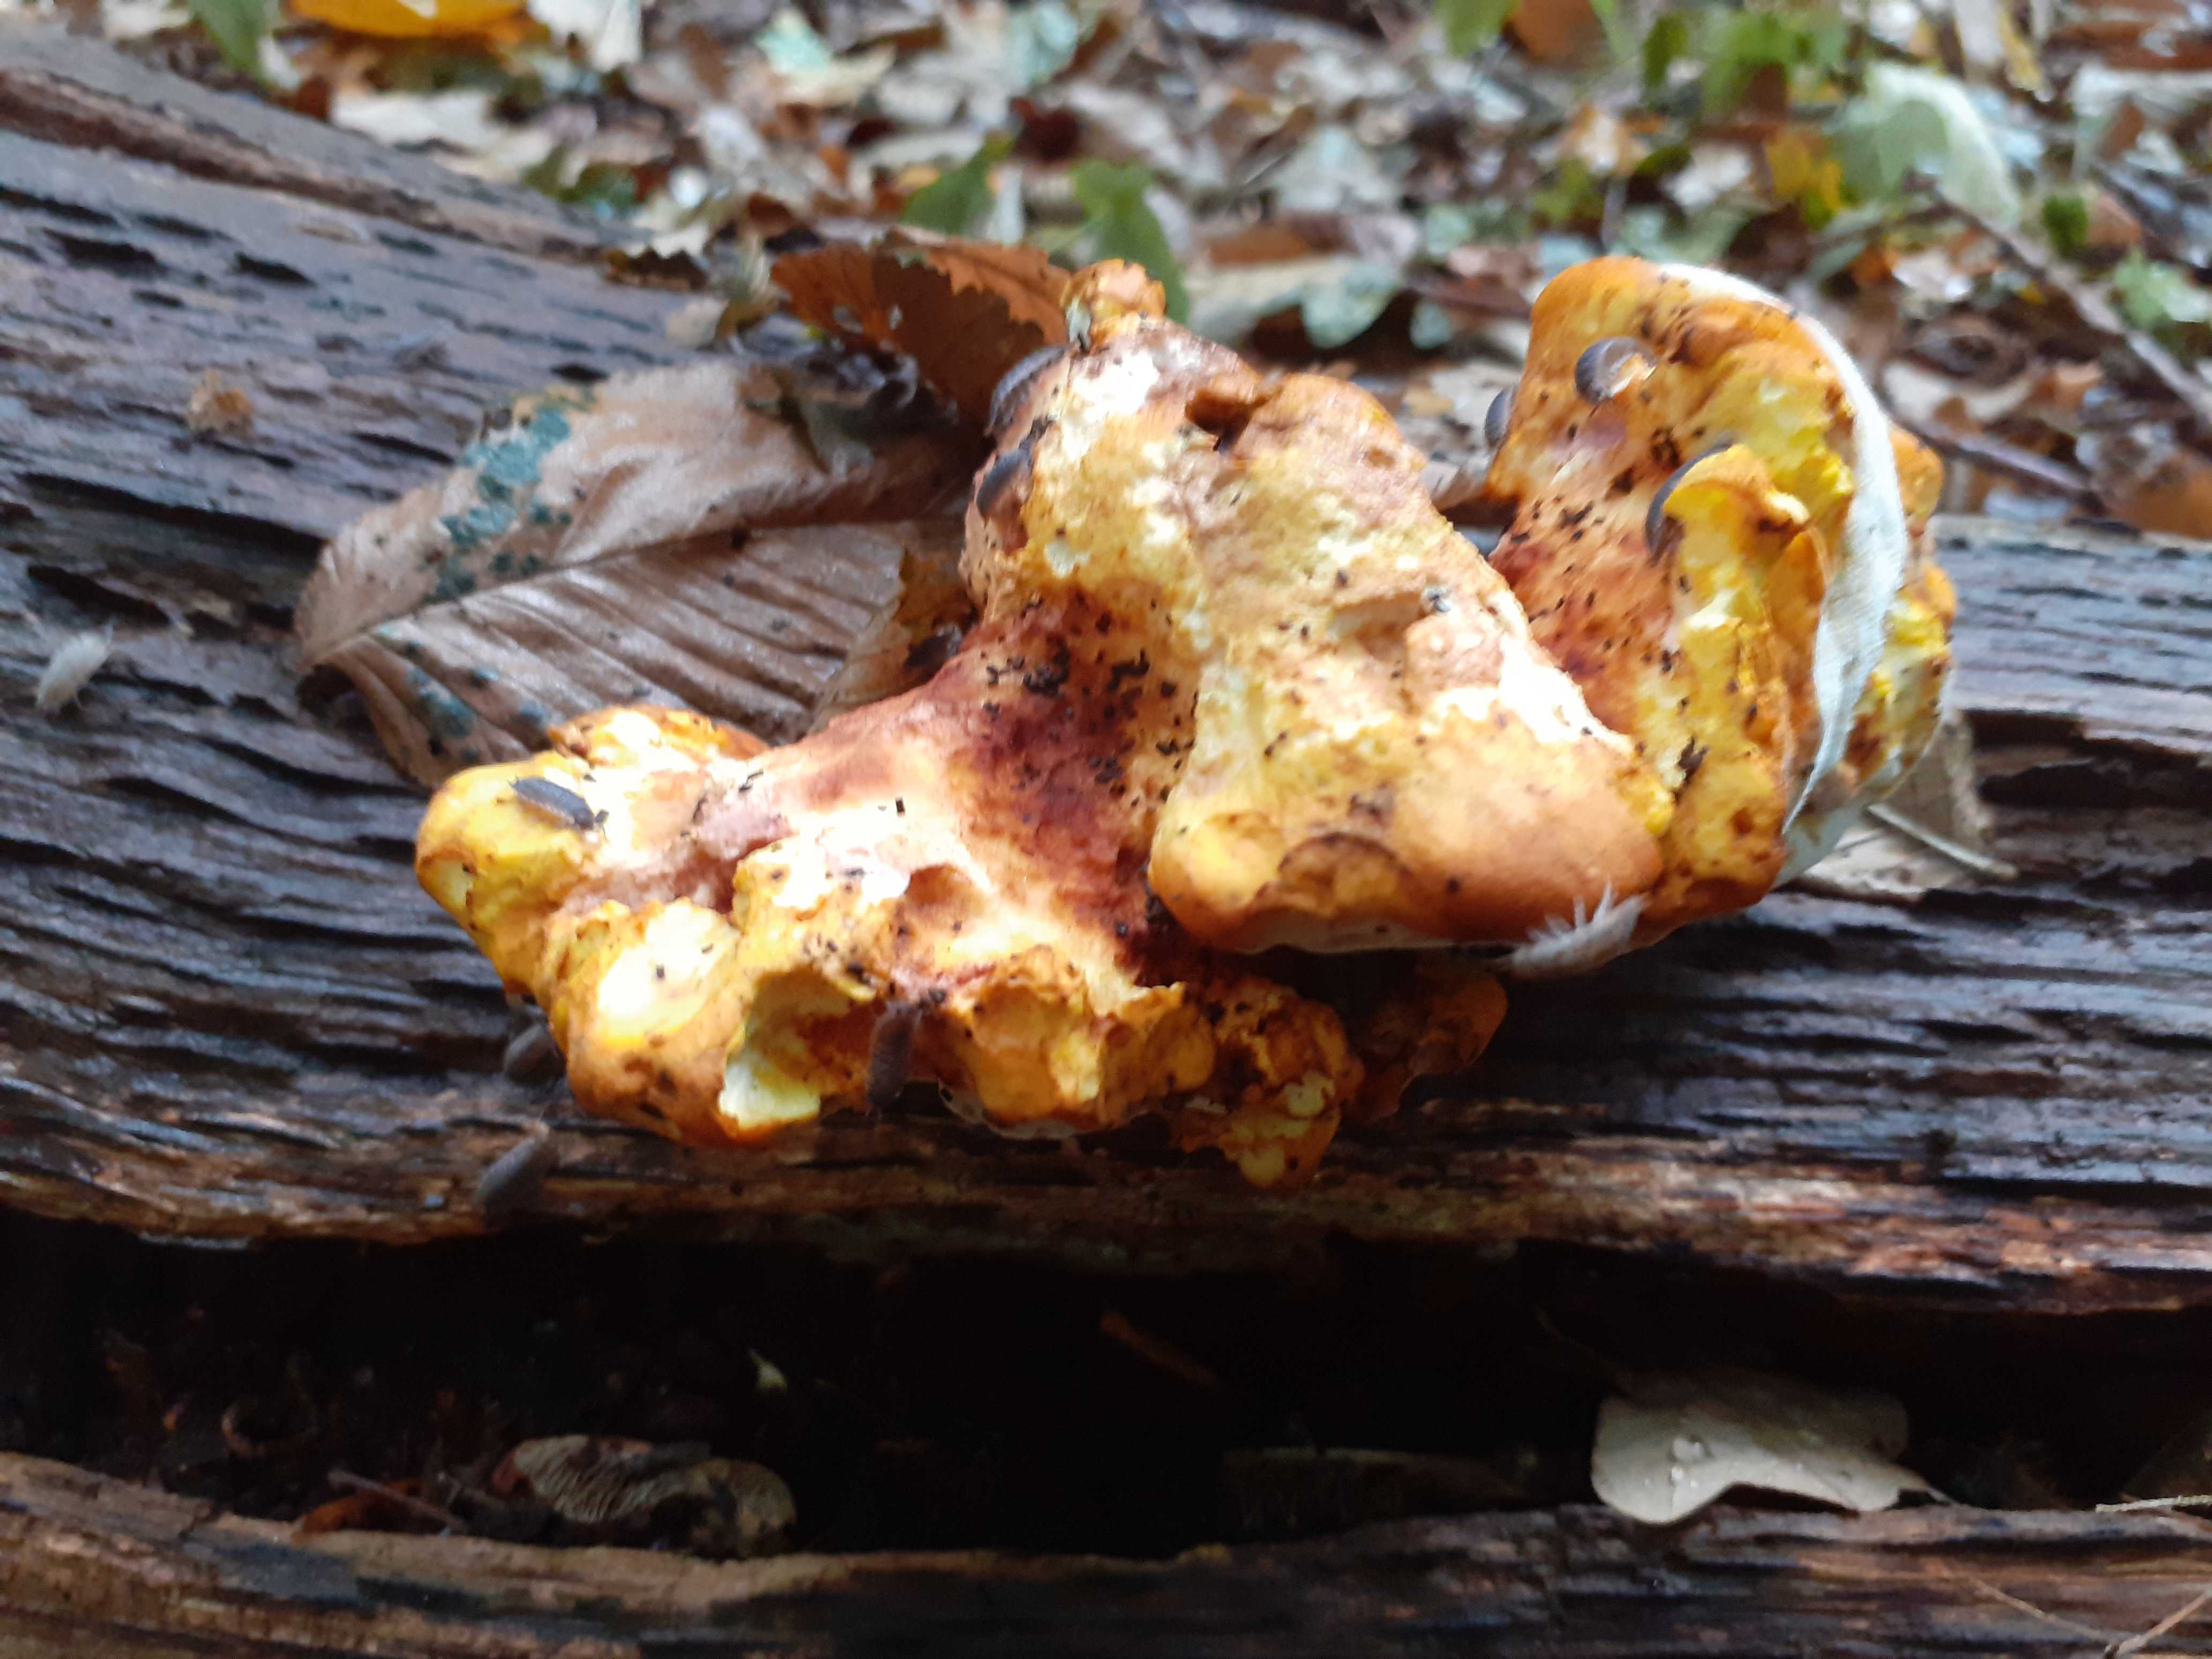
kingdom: Fungi
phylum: Basidiomycota
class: Agaricomycetes
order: Polyporales
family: Fomitopsidaceae
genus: Buglossoporus
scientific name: Buglossoporus quercinus
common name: egetunge
